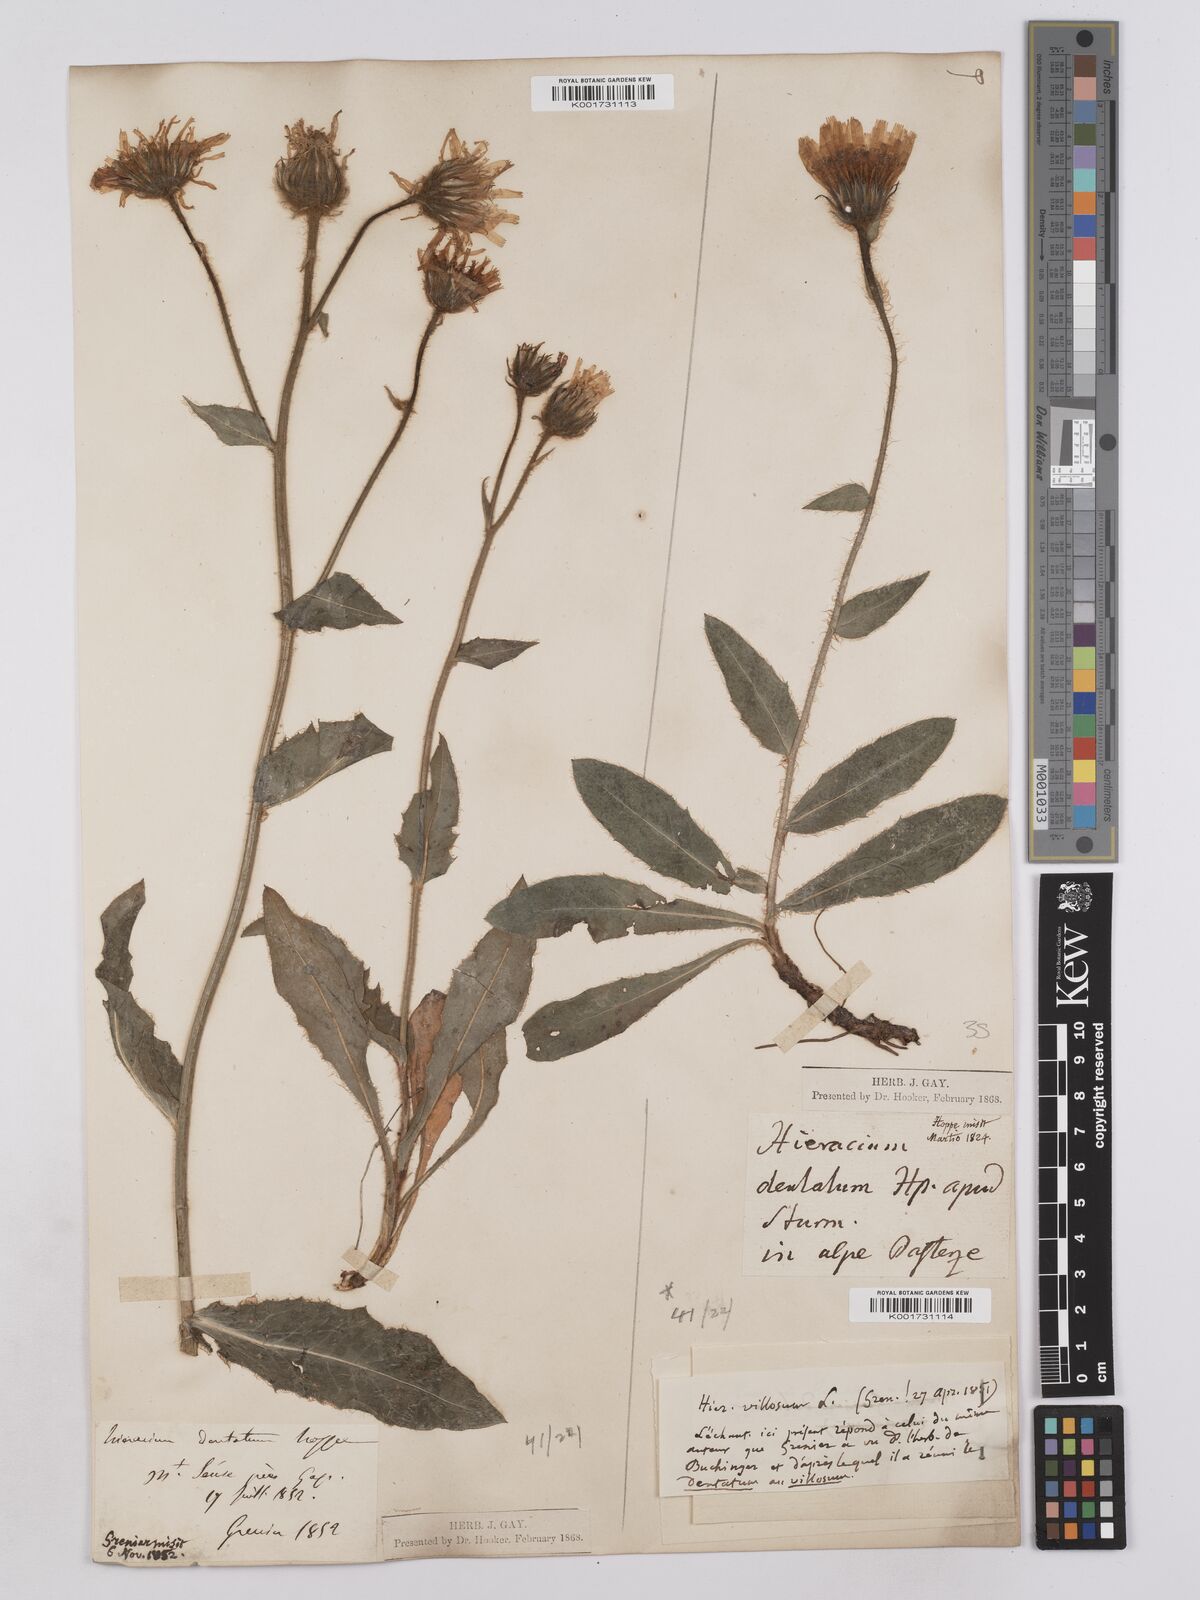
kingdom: Plantae
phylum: Tracheophyta
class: Magnoliopsida
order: Asterales
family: Asteraceae
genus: Hieracium
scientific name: Hieracium villosum
